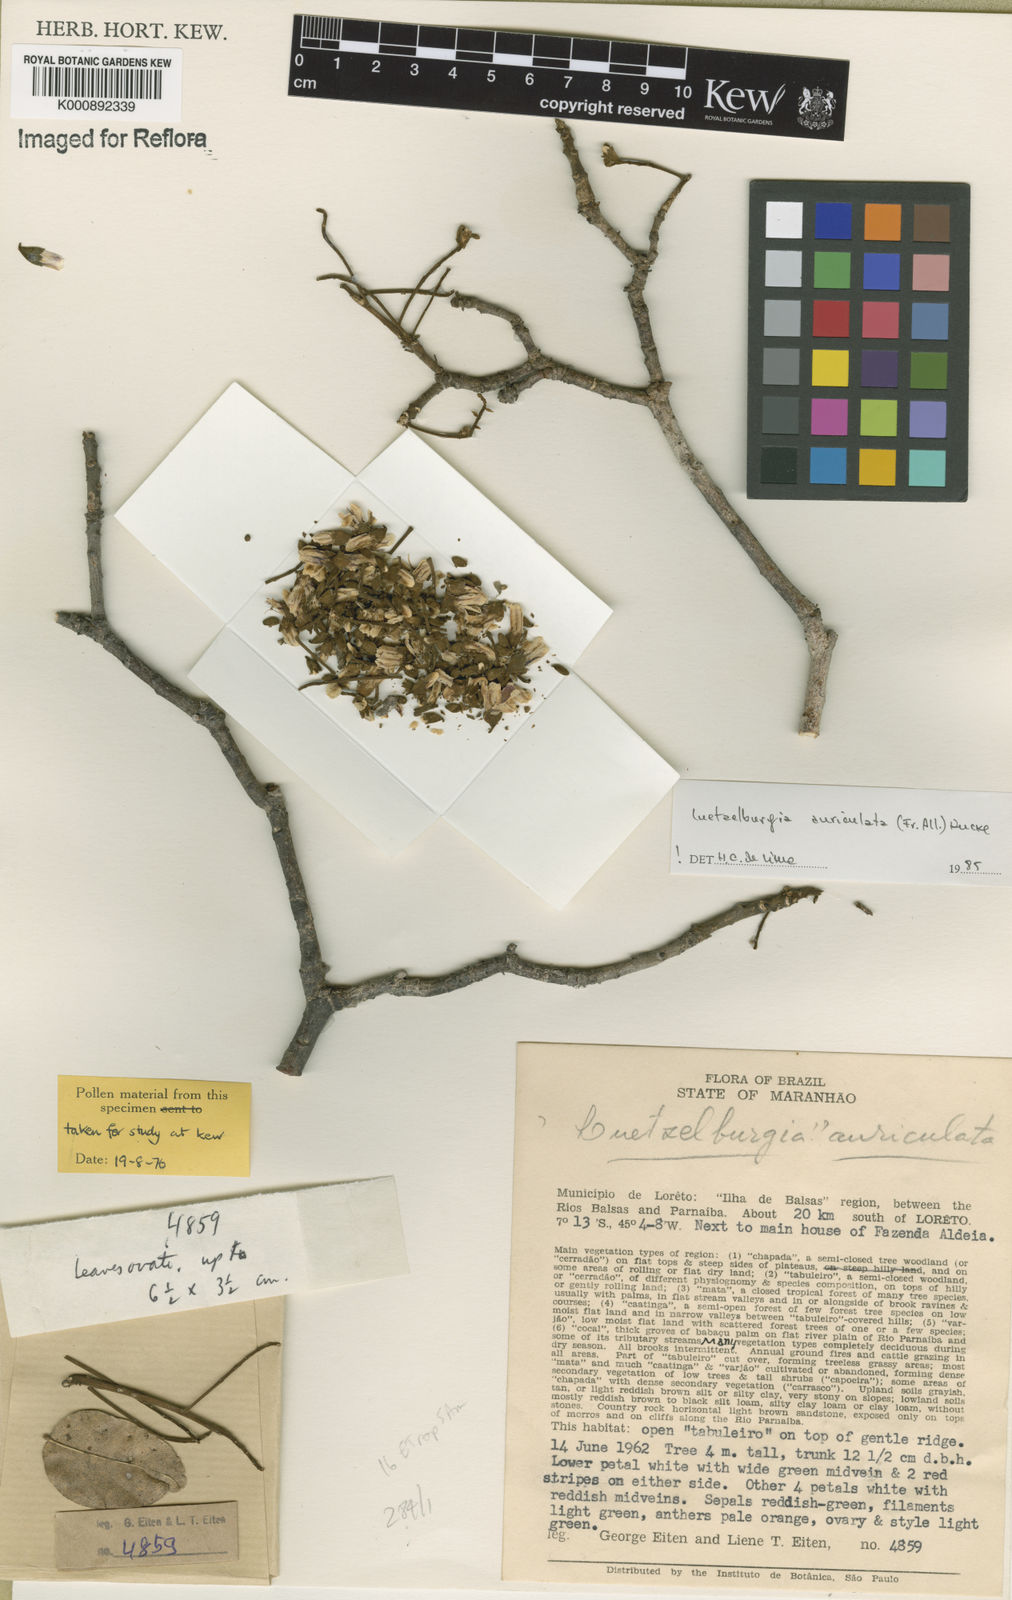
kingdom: Plantae
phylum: Tracheophyta
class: Magnoliopsida
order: Fabales
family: Fabaceae
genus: Luetzelburgia
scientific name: Luetzelburgia
